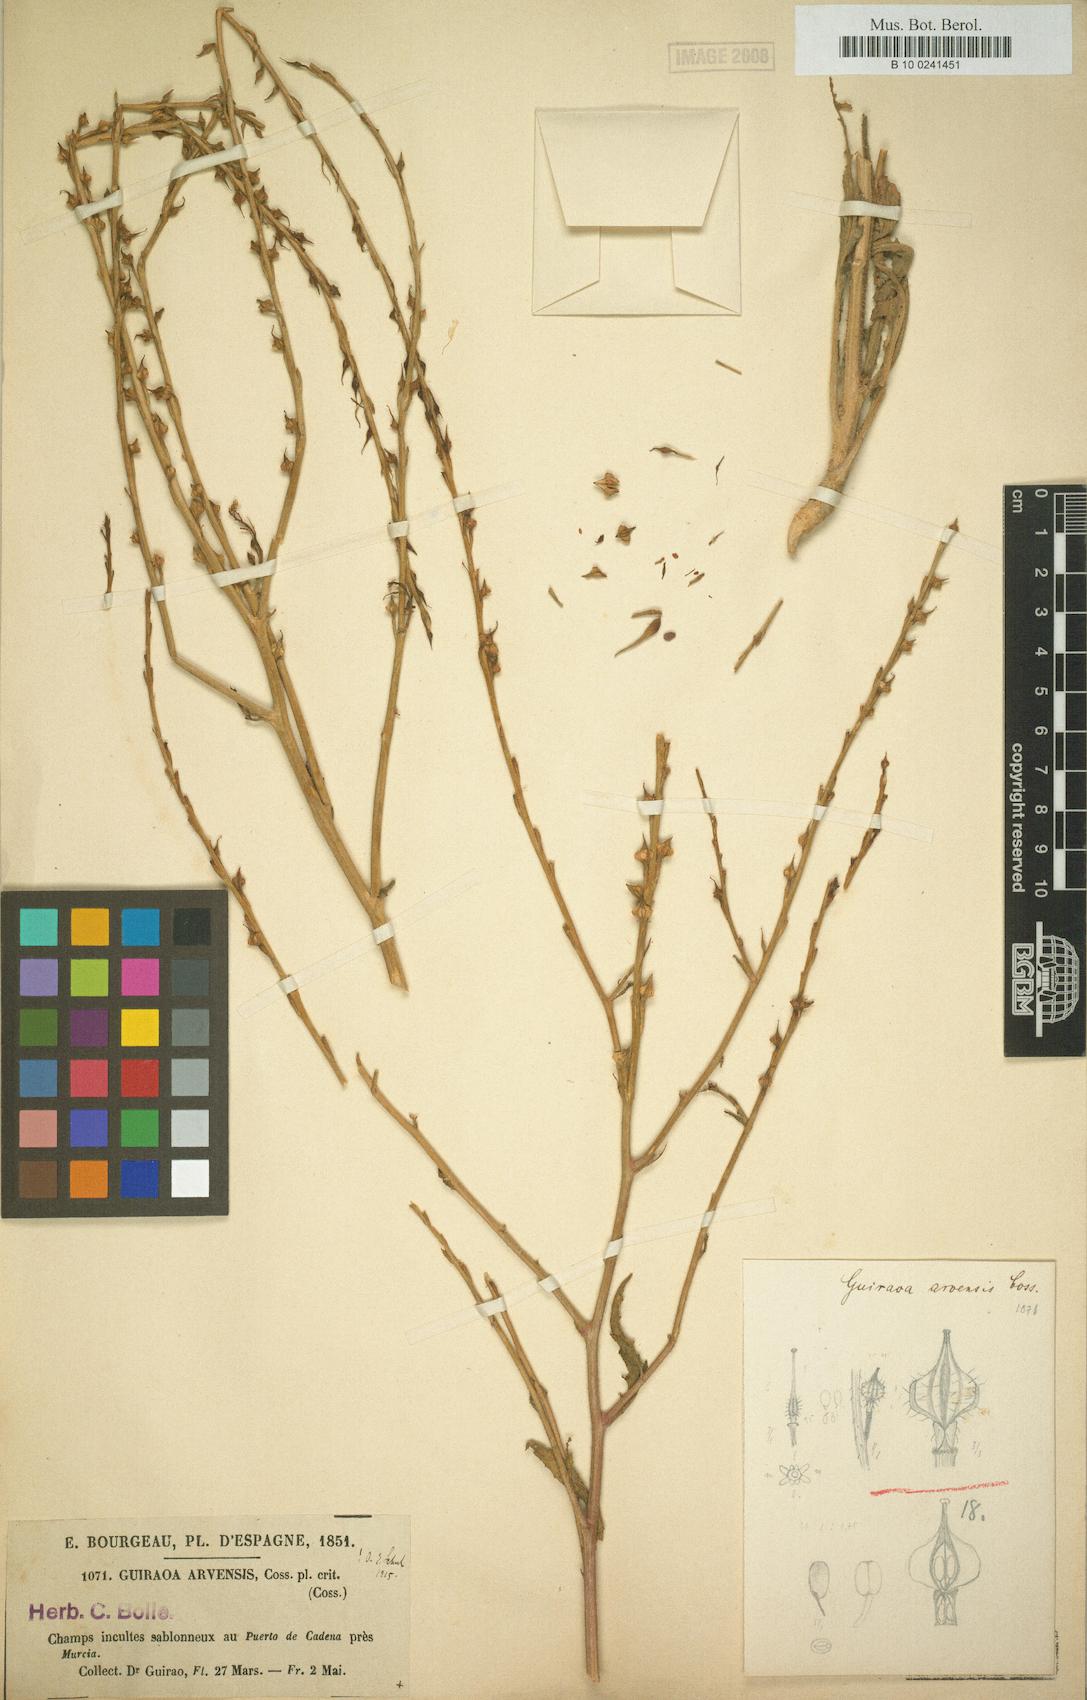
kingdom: Plantae
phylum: Tracheophyta
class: Magnoliopsida
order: Brassicales
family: Brassicaceae
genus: Guiraoa
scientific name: Guiraoa arvensis
